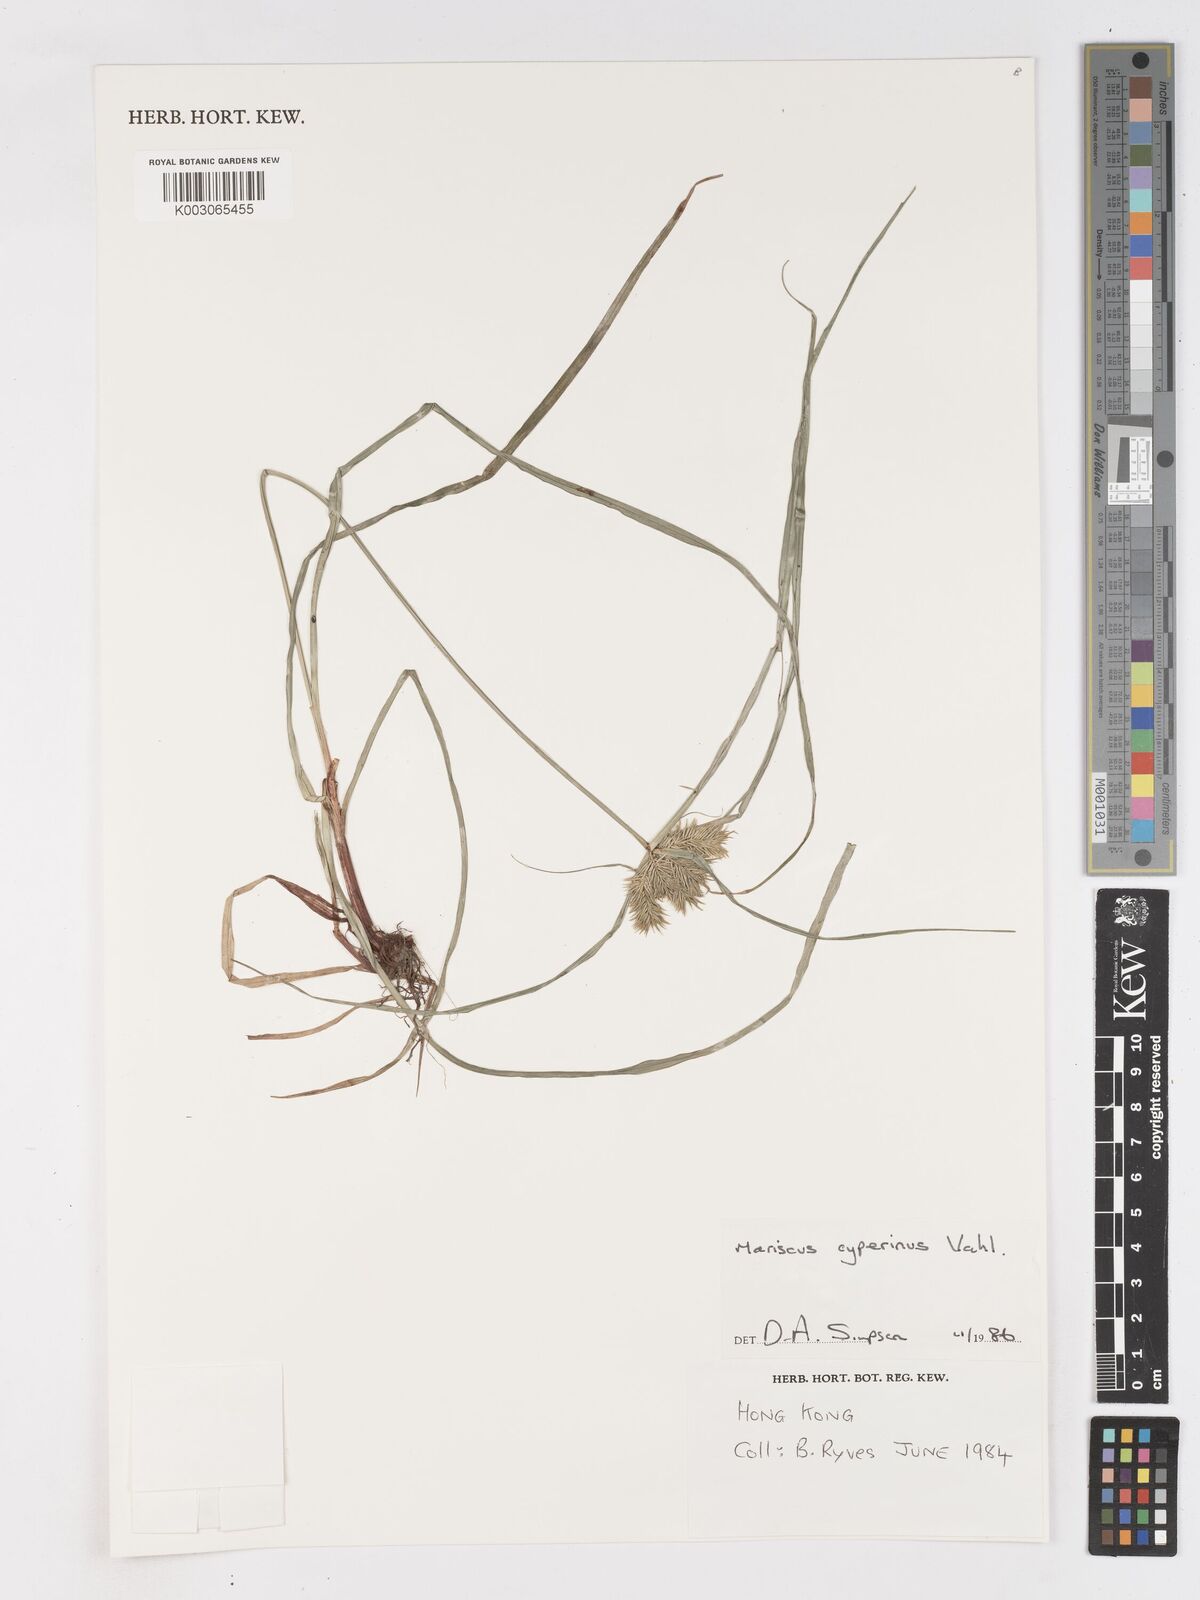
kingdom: Plantae
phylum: Tracheophyta
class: Liliopsida
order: Poales
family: Cyperaceae
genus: Cyperus
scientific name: Cyperus cyperinus
